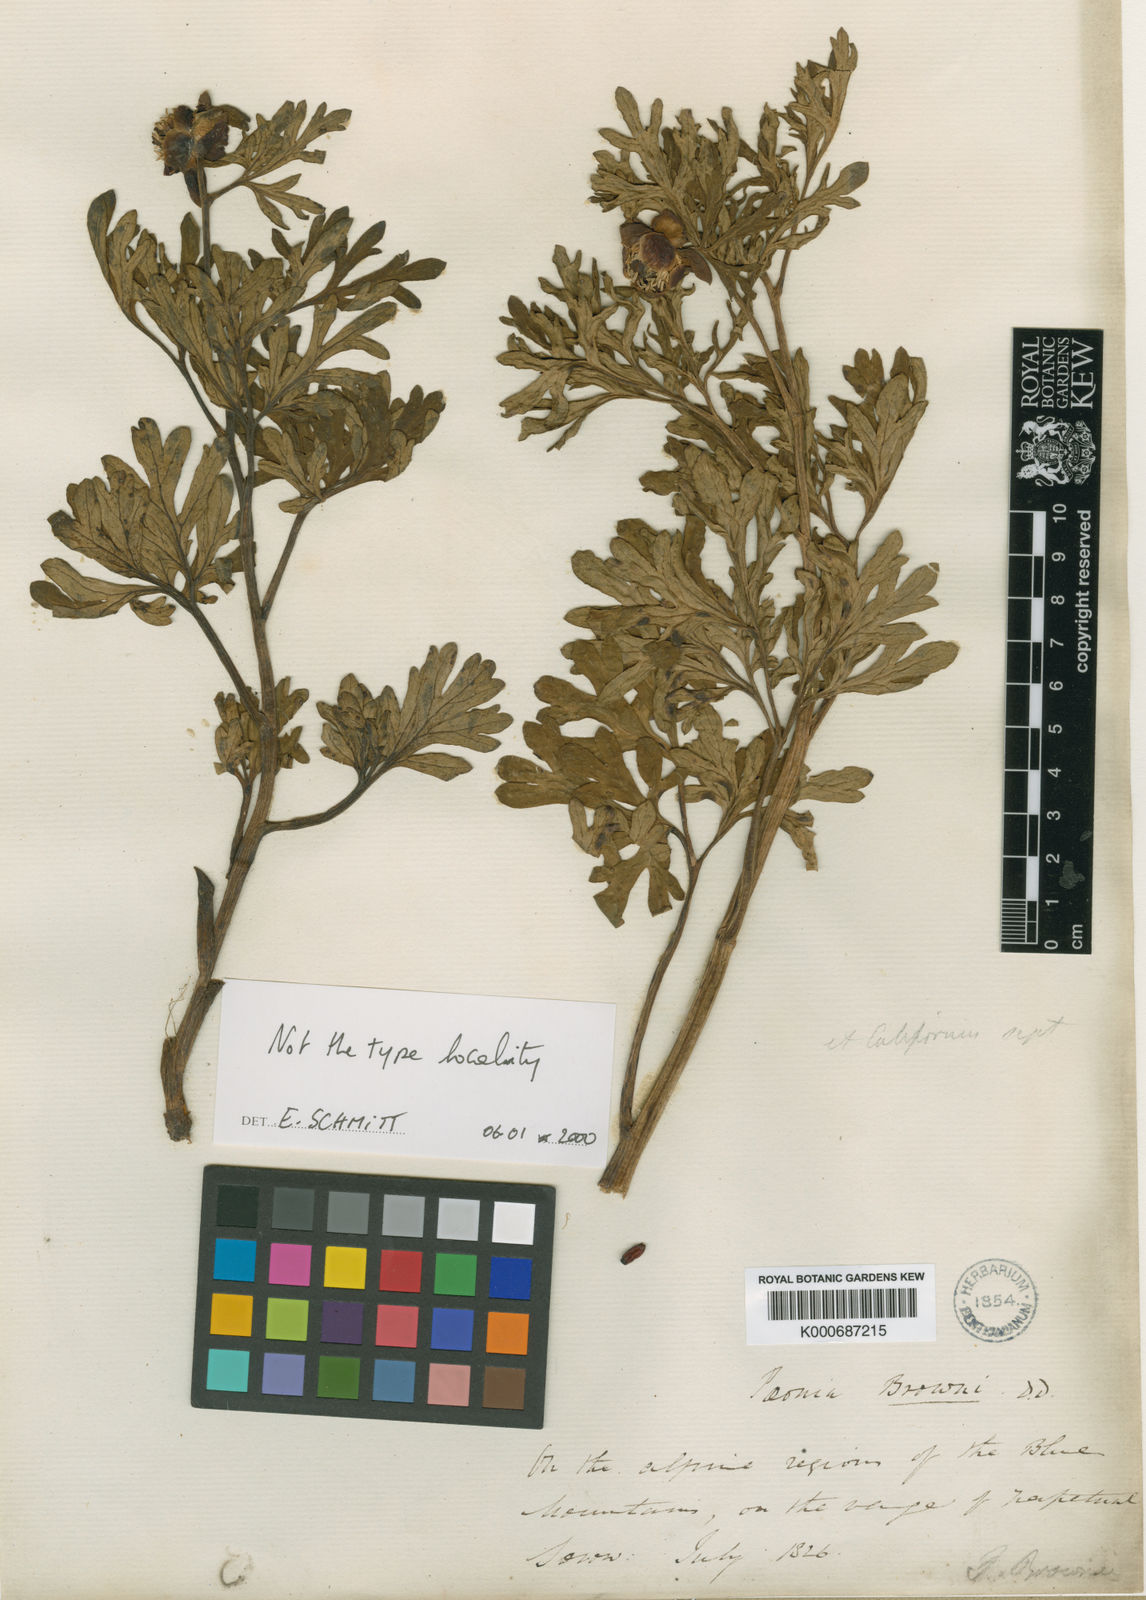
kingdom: Plantae
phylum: Tracheophyta
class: Magnoliopsida
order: Saxifragales
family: Paeoniaceae
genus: Paeonia
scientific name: Paeonia brownii
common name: Brown's peony
